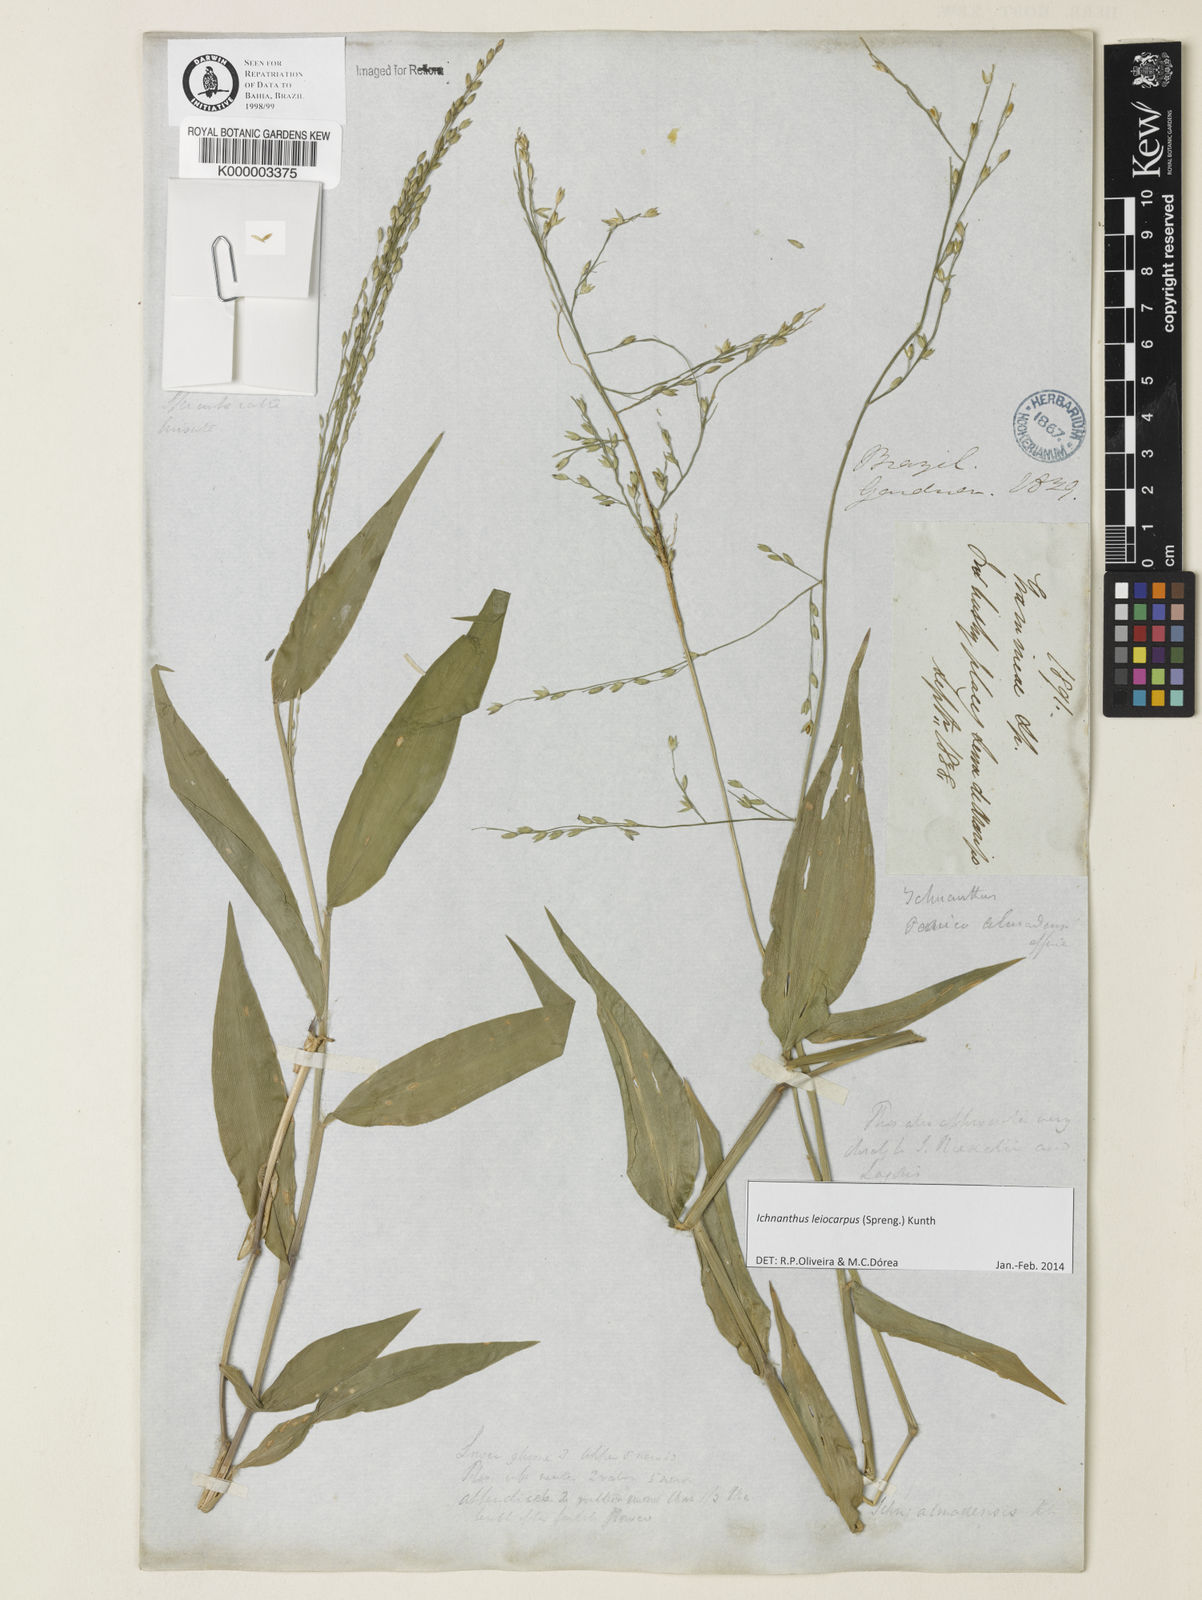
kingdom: Plantae
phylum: Tracheophyta
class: Liliopsida
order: Poales
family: Poaceae
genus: Ichnanthus
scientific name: Ichnanthus nemoralis
